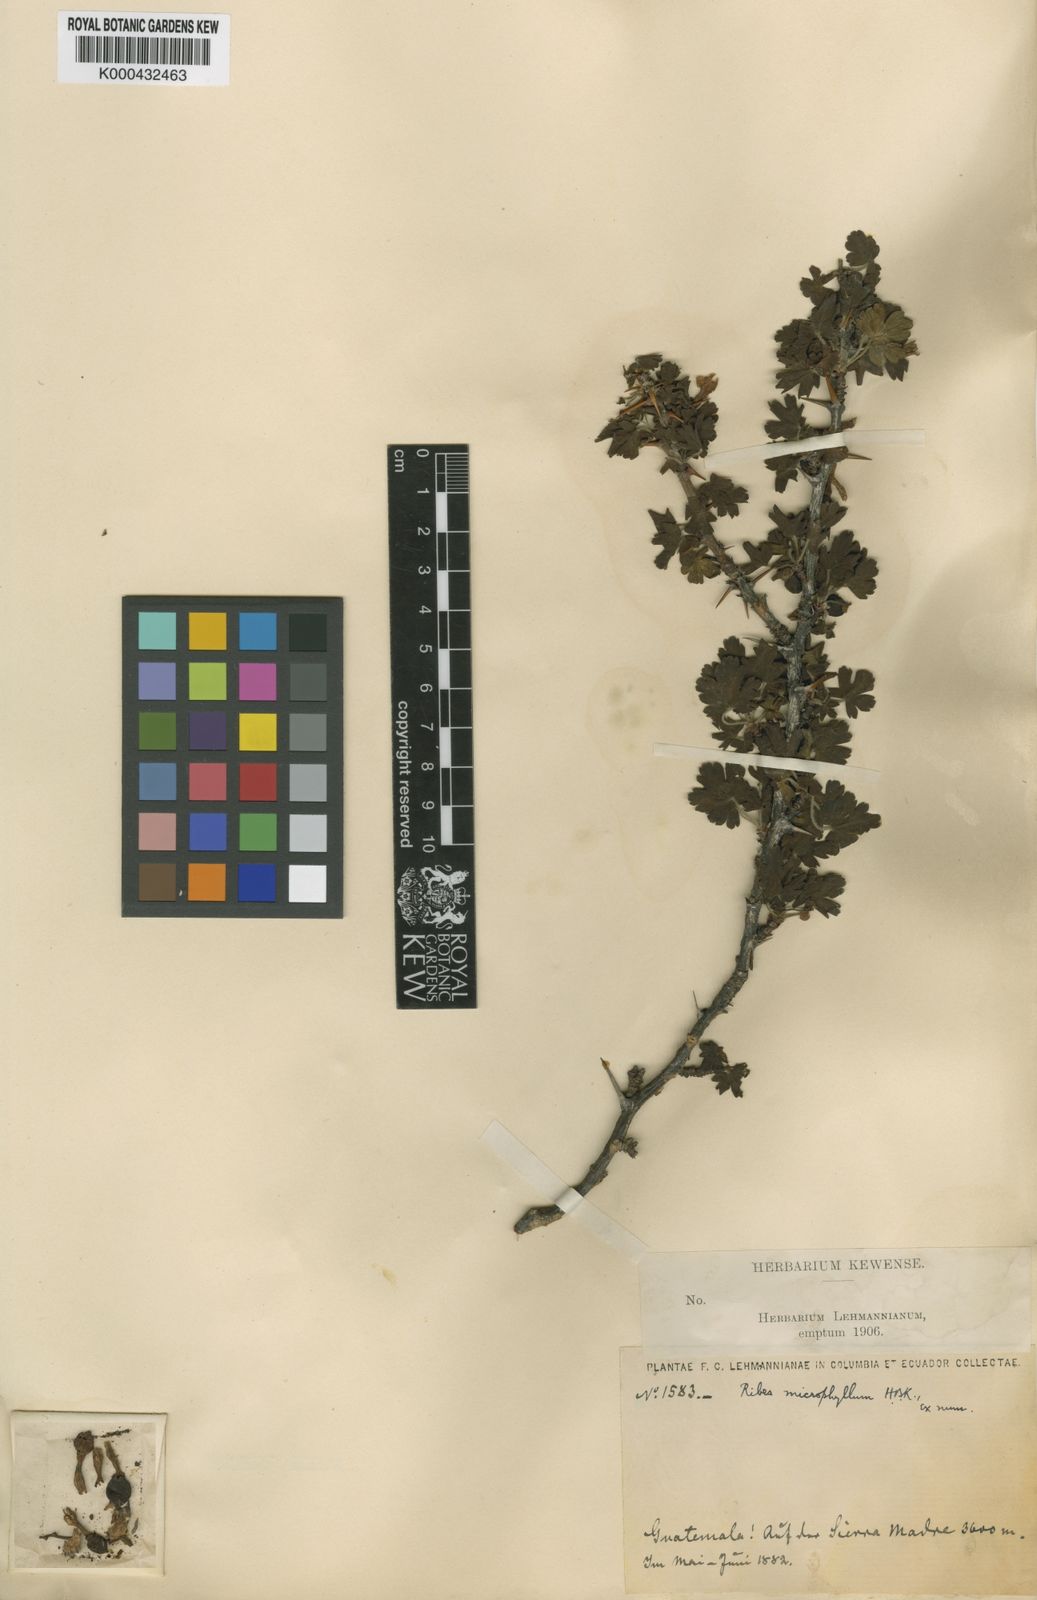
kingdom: Plantae
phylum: Tracheophyta
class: Magnoliopsida
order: Saxifragales
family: Grossulariaceae
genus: Ribes
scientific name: Ribes microphyllum
